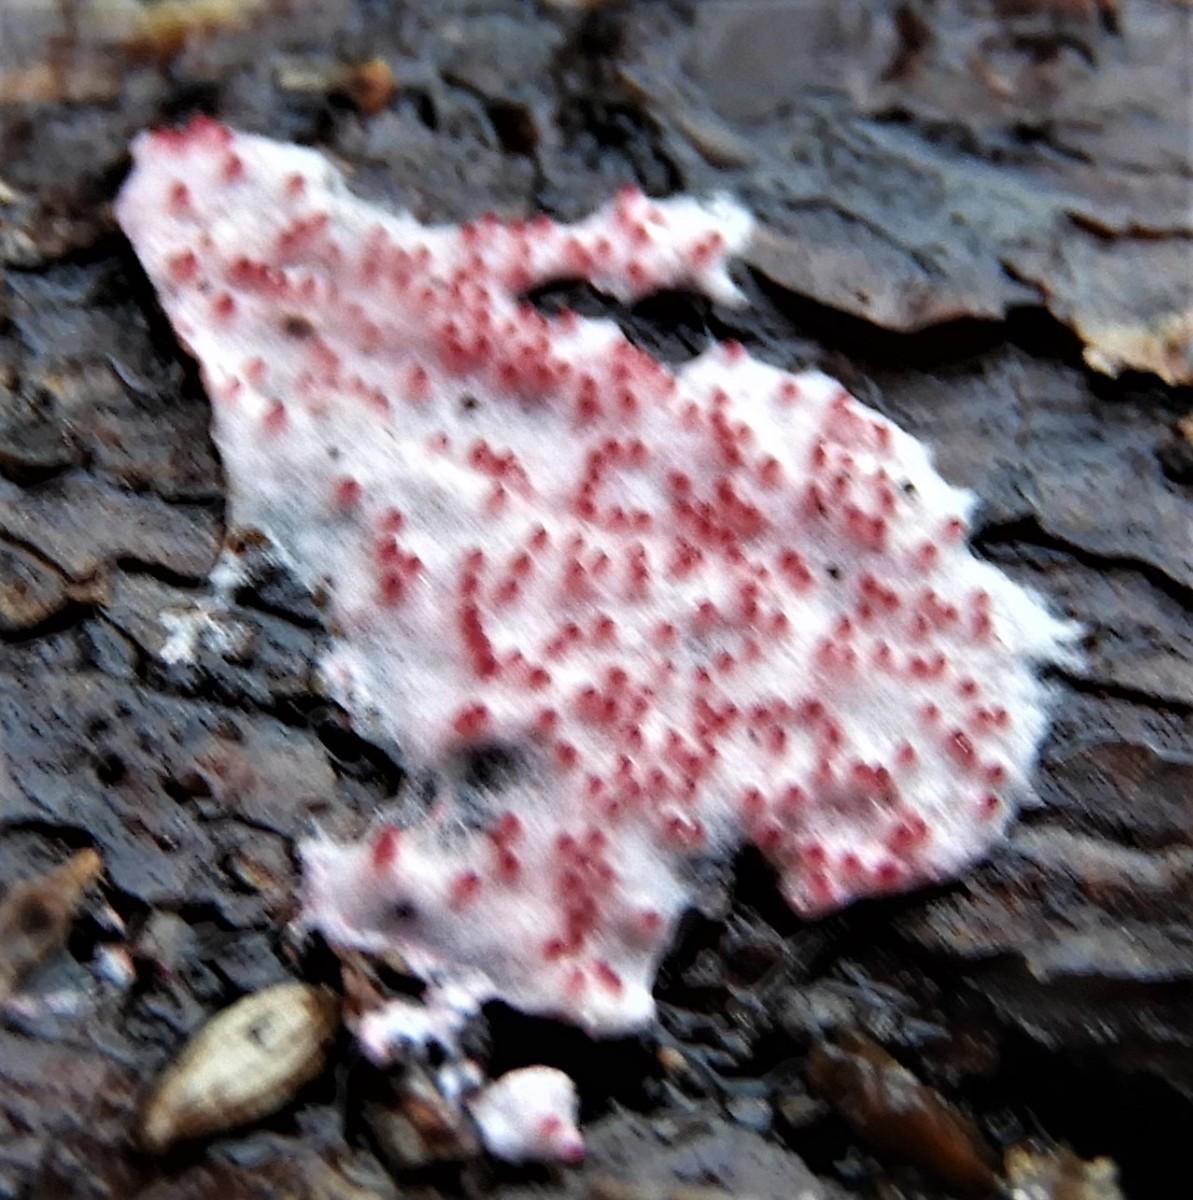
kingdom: Fungi
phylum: Ascomycota
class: Sordariomycetes
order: Hypocreales
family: Hypocreaceae
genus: Hypomyces
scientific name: Hypomyces rosellus
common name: rosa snylteskorpe
